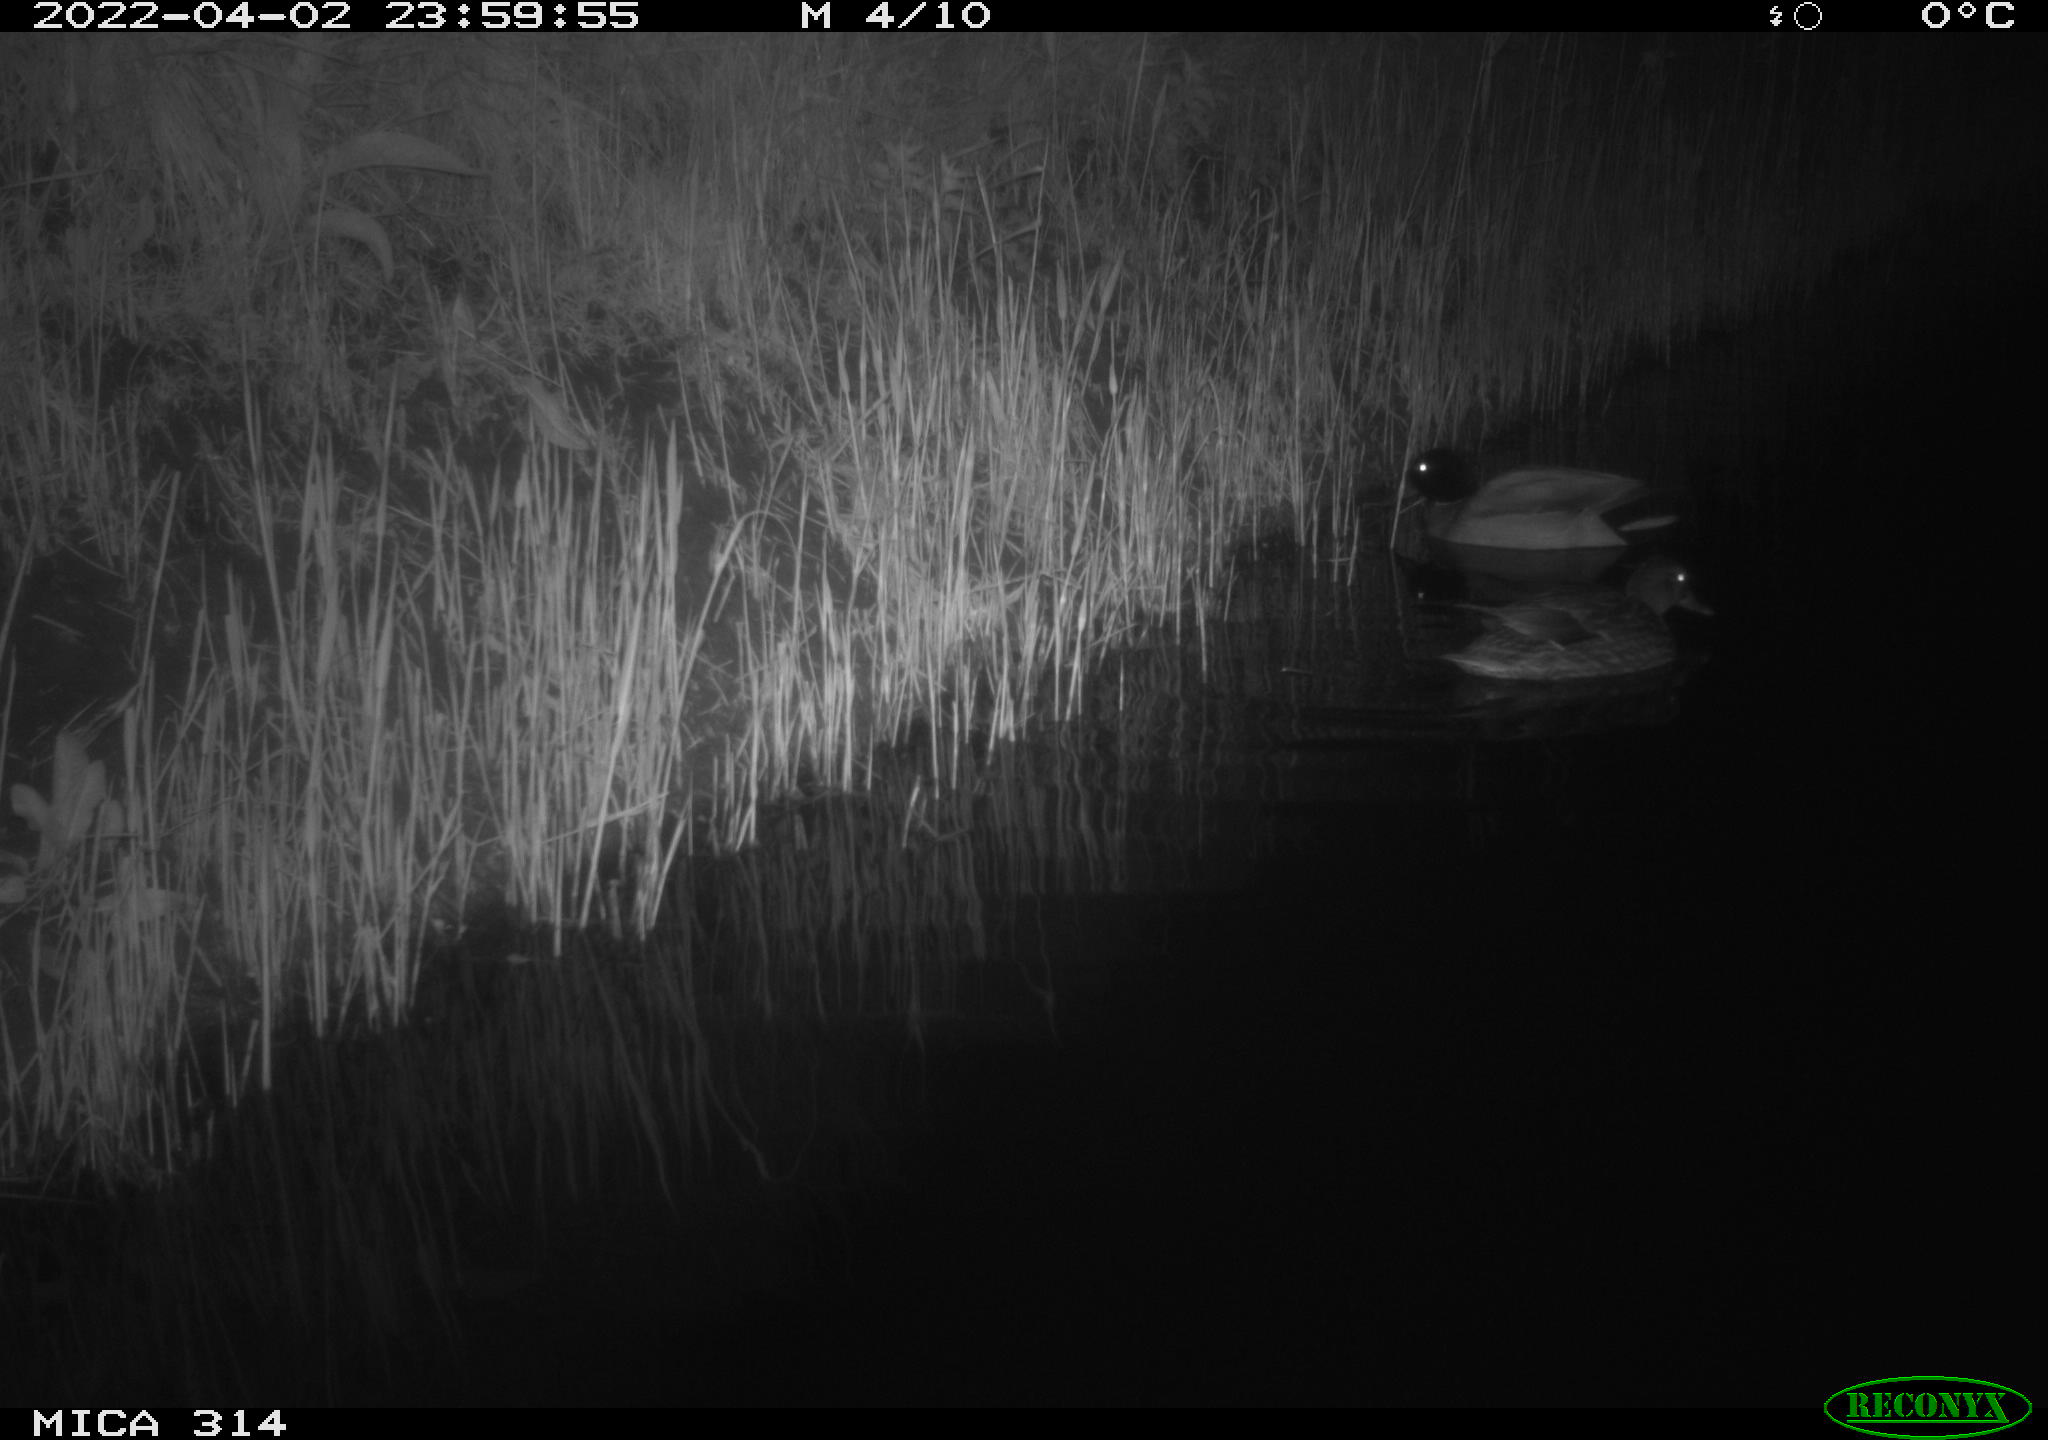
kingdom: Animalia
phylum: Chordata
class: Aves
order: Anseriformes
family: Anatidae
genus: Anas
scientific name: Anas platyrhynchos
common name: Mallard
